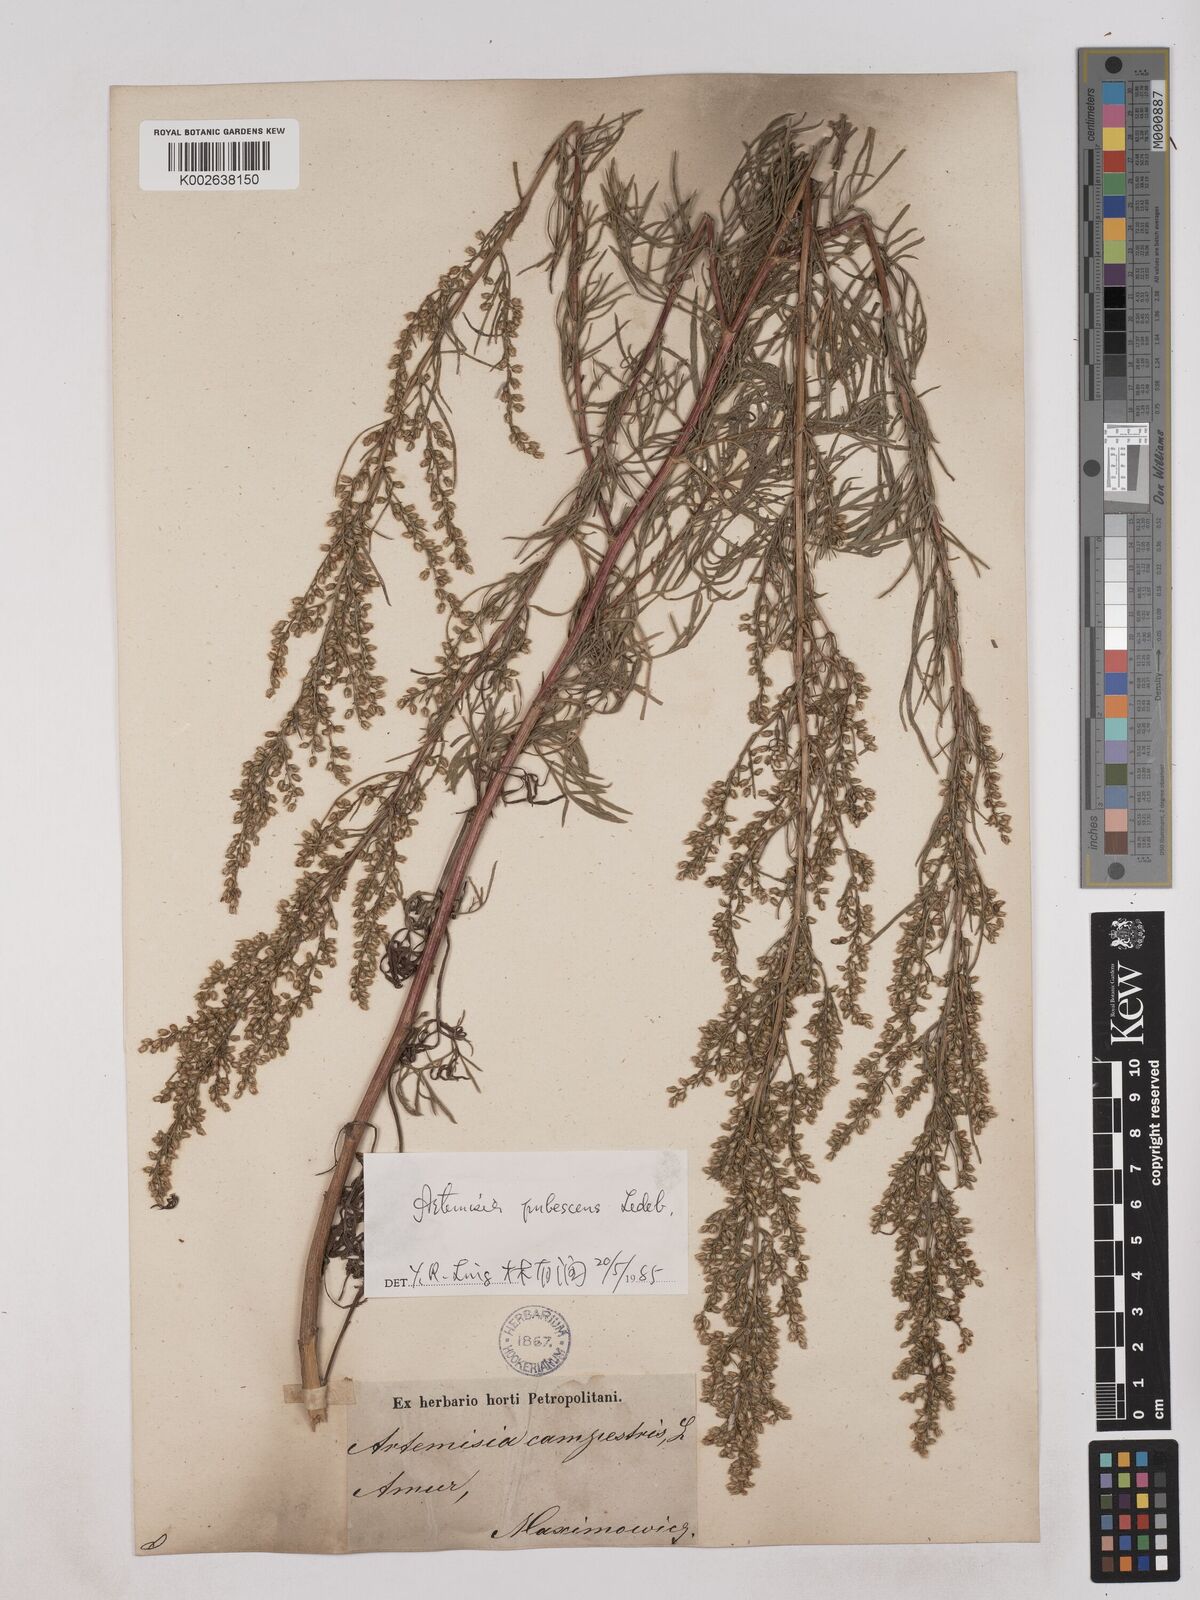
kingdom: Plantae
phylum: Tracheophyta
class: Magnoliopsida
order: Asterales
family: Asteraceae
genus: Artemisia
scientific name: Artemisia pubescens
